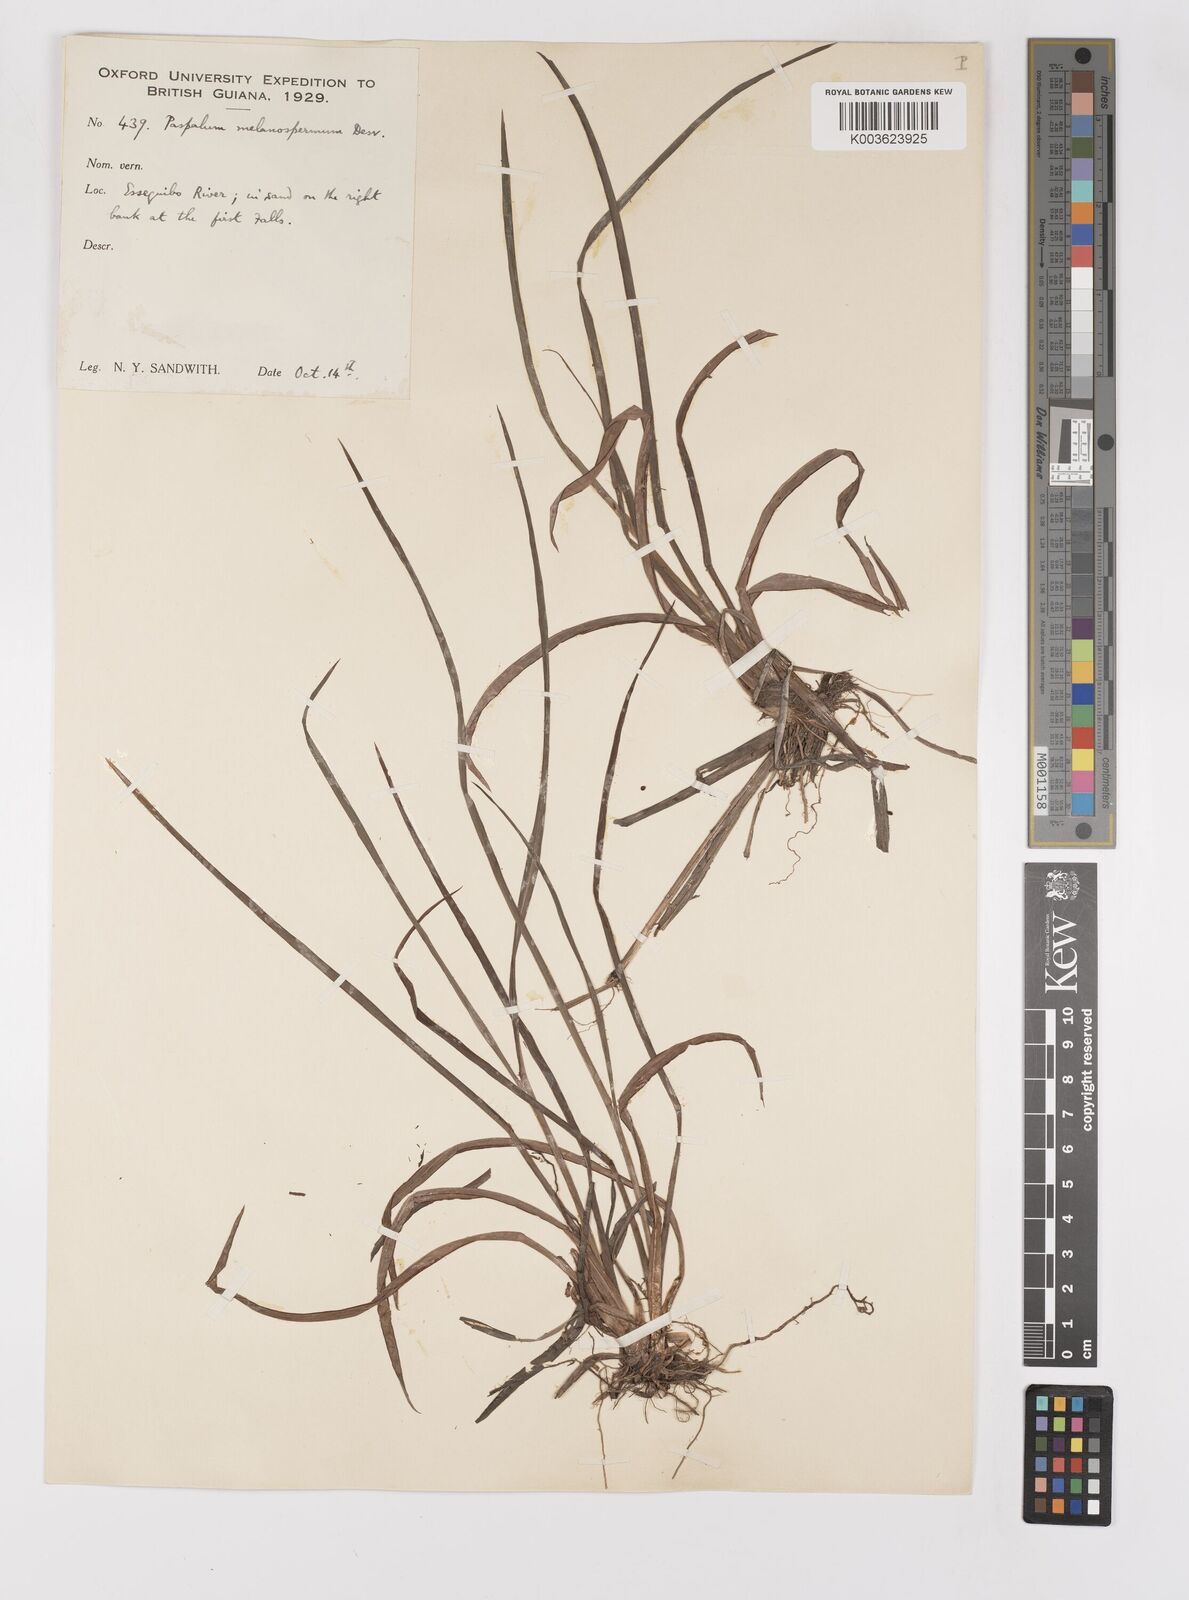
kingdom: Plantae
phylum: Tracheophyta
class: Liliopsida
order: Poales
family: Poaceae
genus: Paspalum
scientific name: Paspalum melanospermum
